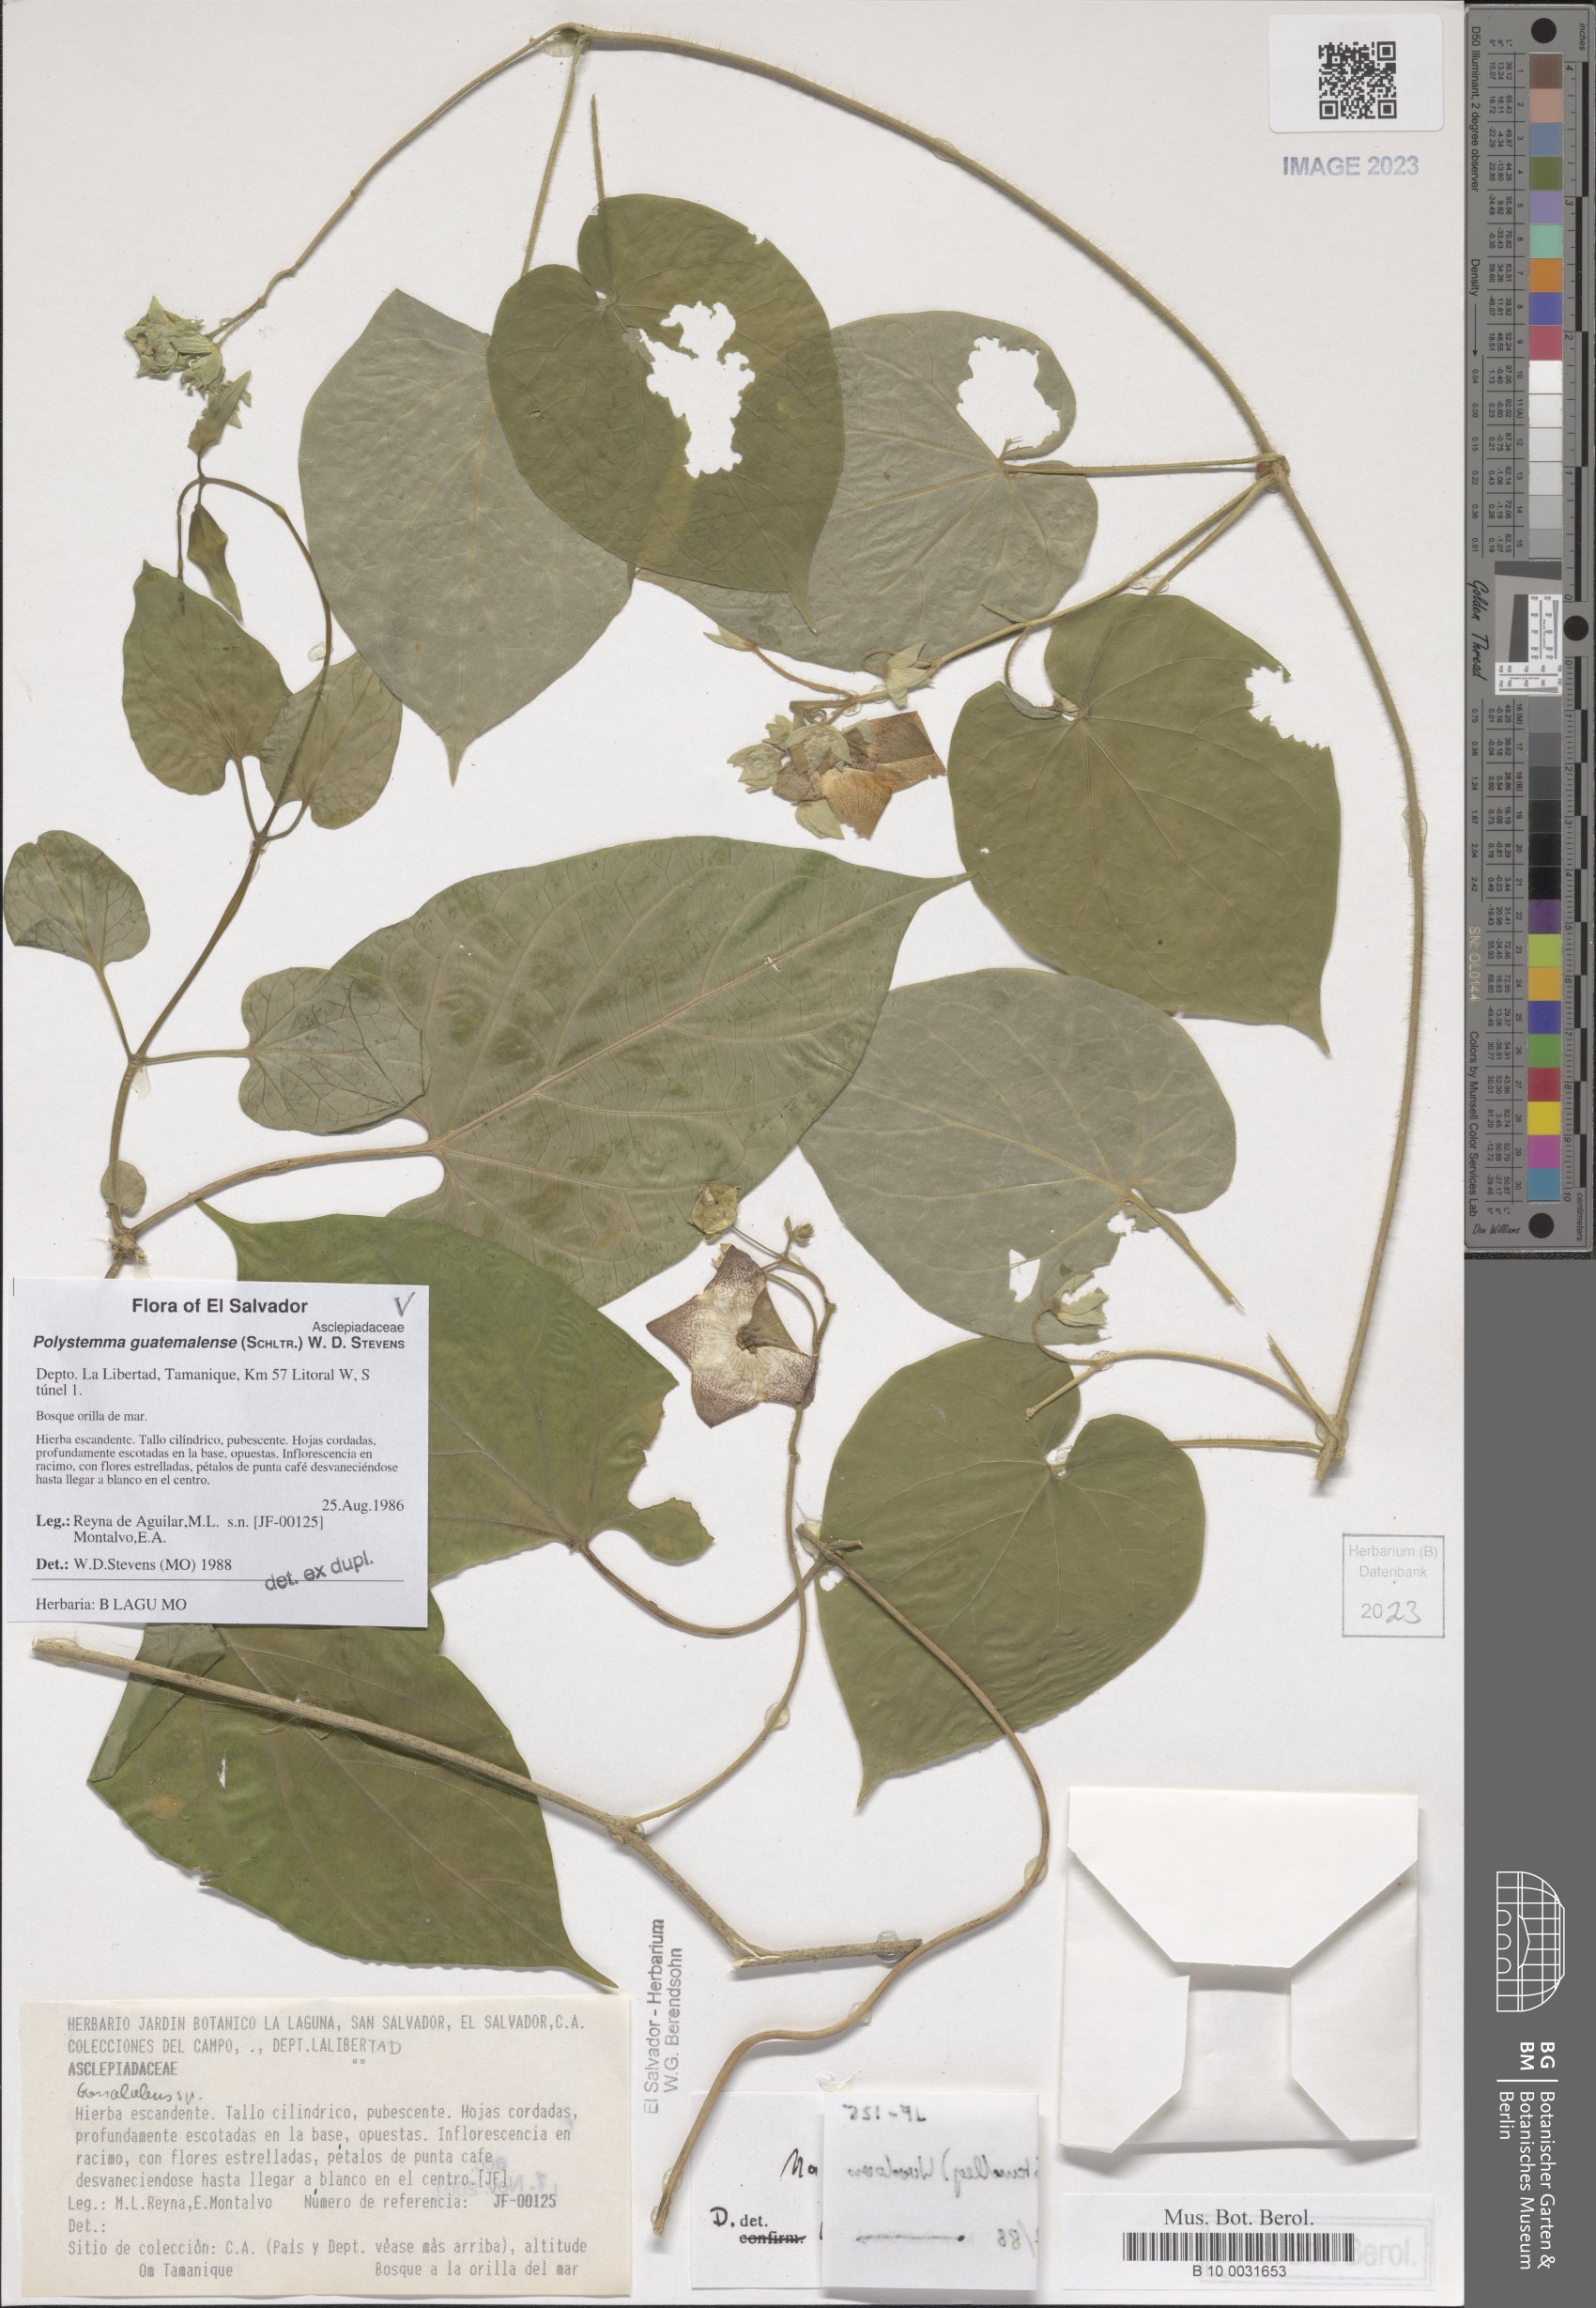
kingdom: Plantae
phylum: Tracheophyta
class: Magnoliopsida
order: Gentianales
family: Apocynaceae
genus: Polystemma
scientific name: Polystemma guatemalense
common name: Arborescente rattan
